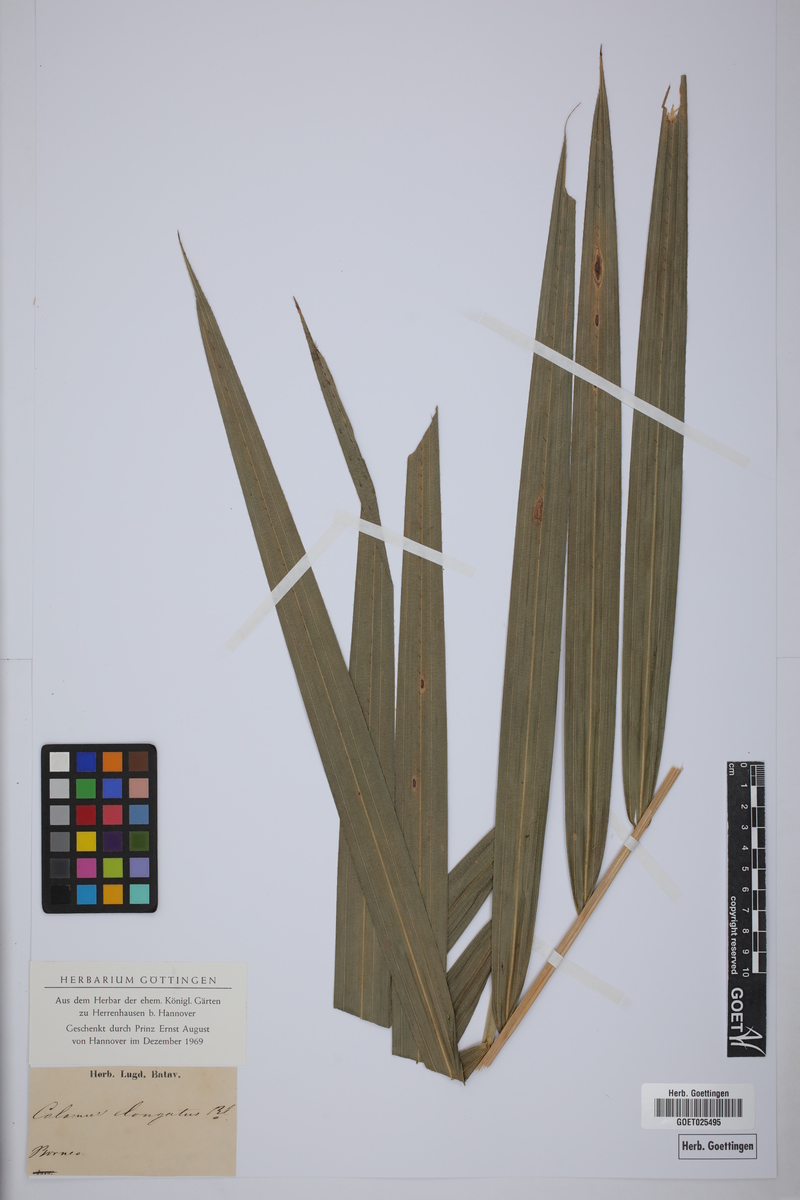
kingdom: Plantae
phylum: Tracheophyta
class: Liliopsida
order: Arecales
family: Arecaceae
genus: Calamus
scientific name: Calamus oblongus
